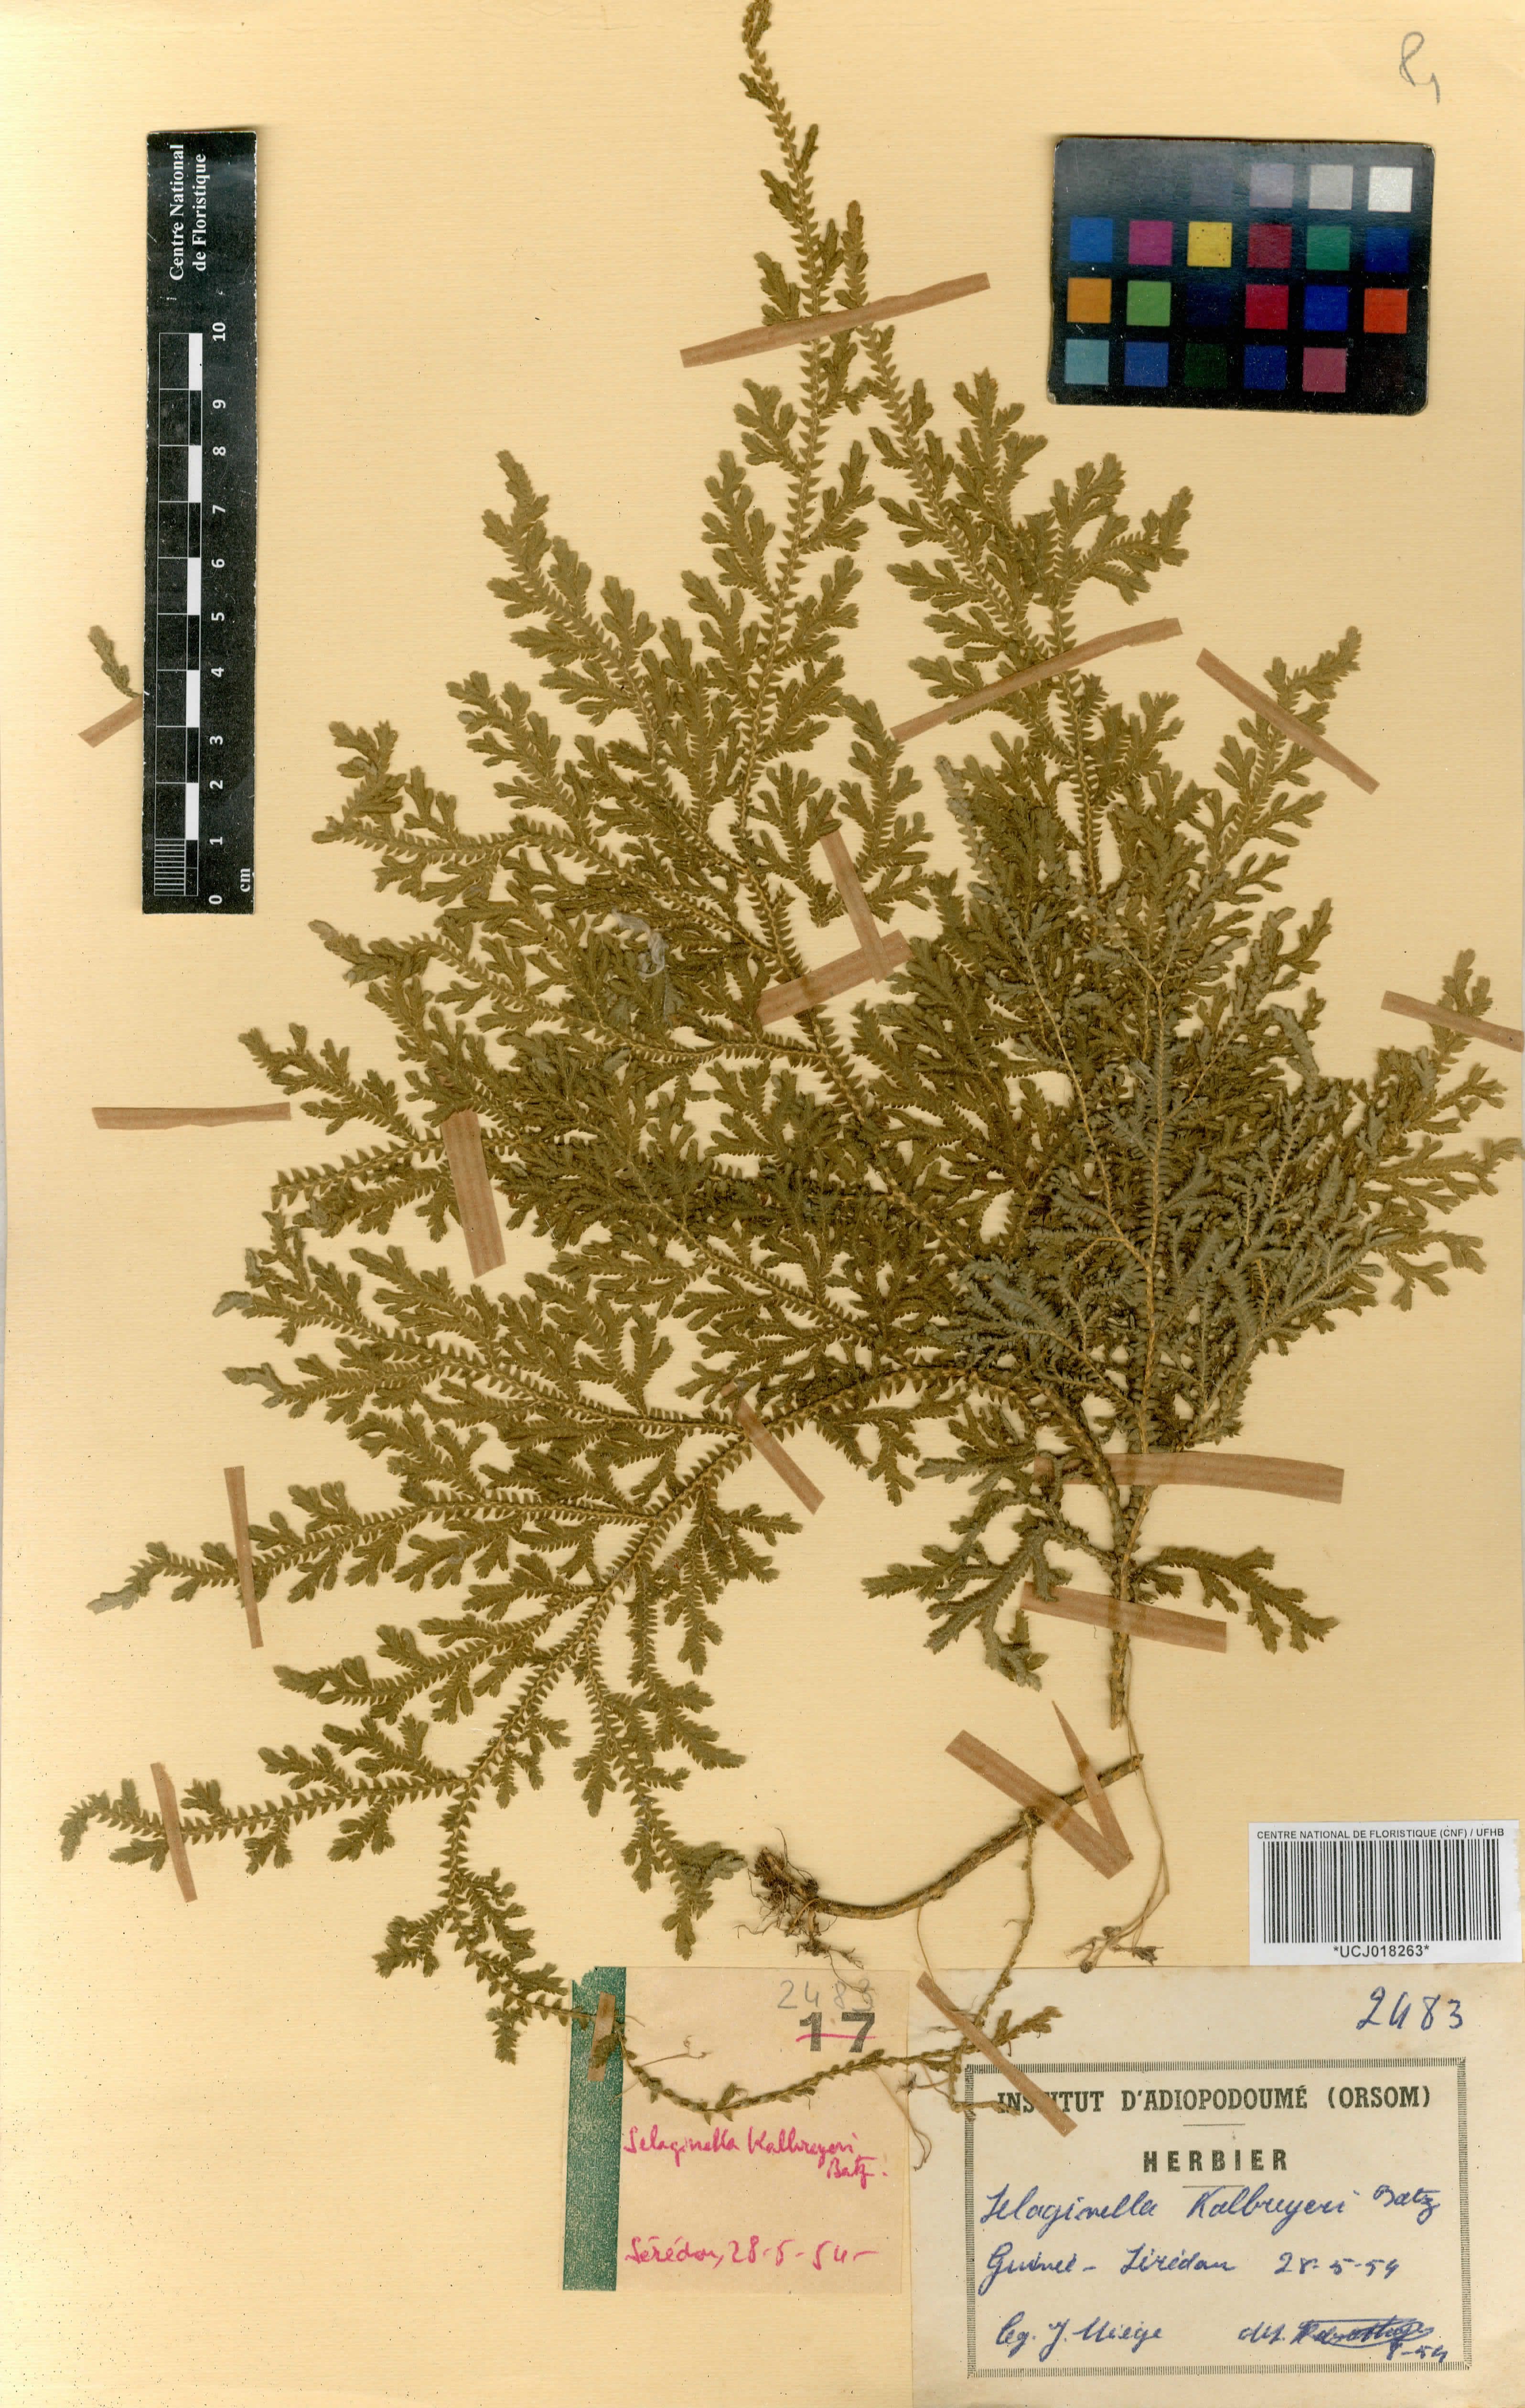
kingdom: Plantae
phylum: Tracheophyta
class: Lycopodiopsida
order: Selaginellales
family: Selaginellaceae
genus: Selaginella
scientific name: Selaginella kalbreyeri
